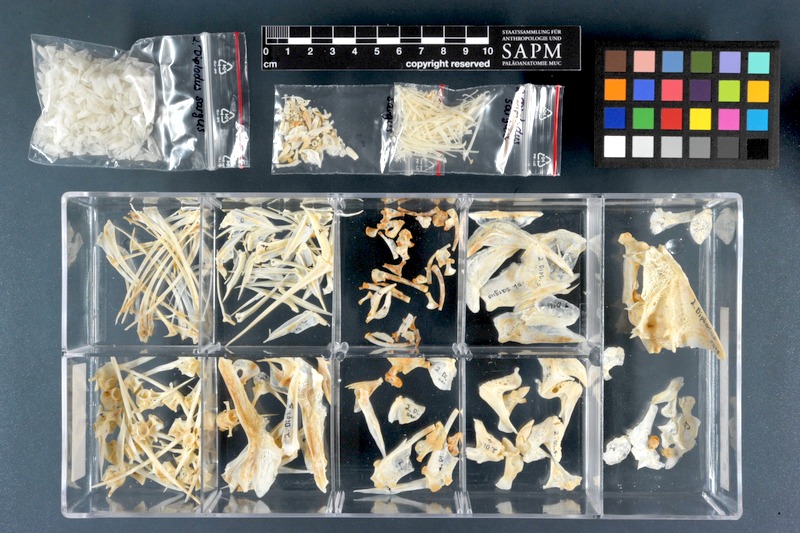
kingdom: Animalia
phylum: Chordata
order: Perciformes
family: Sparidae
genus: Diplodus
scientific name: Diplodus sargus
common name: White seabream
